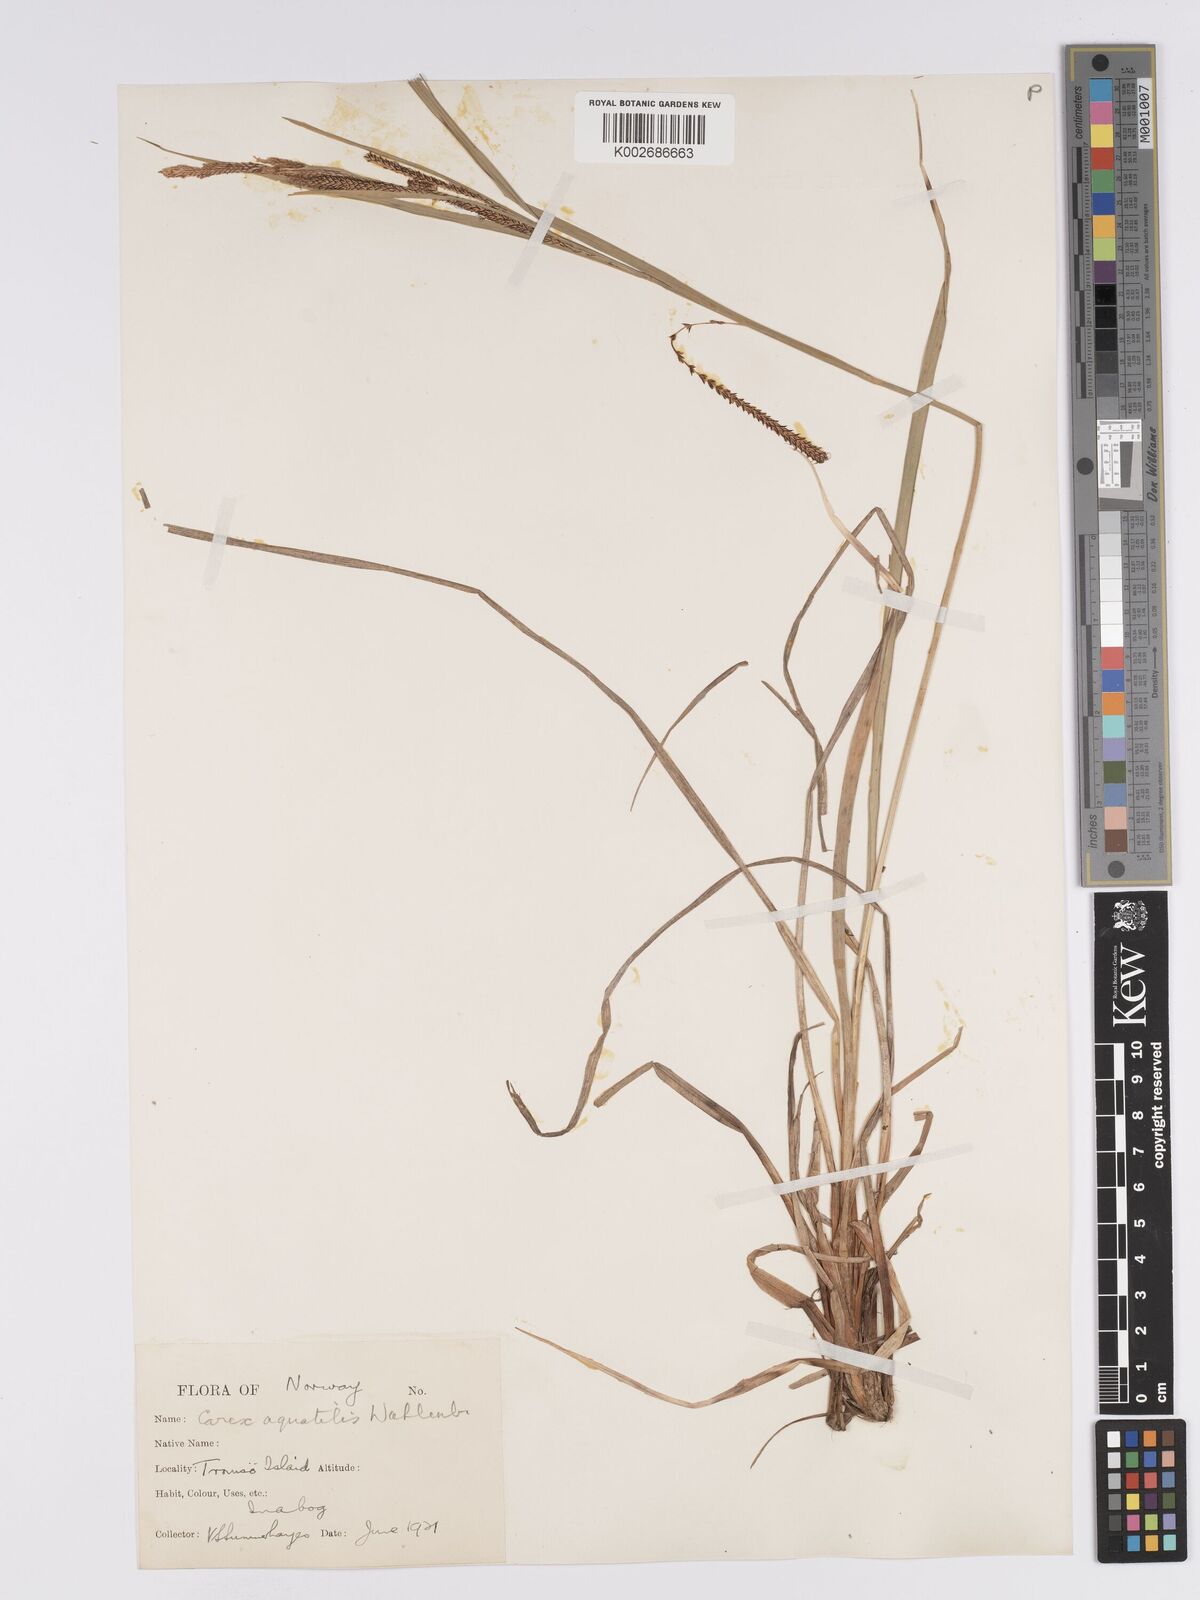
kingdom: Plantae
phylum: Tracheophyta
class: Liliopsida
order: Poales
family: Cyperaceae
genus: Carex
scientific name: Carex aquatilis
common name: Water sedge
